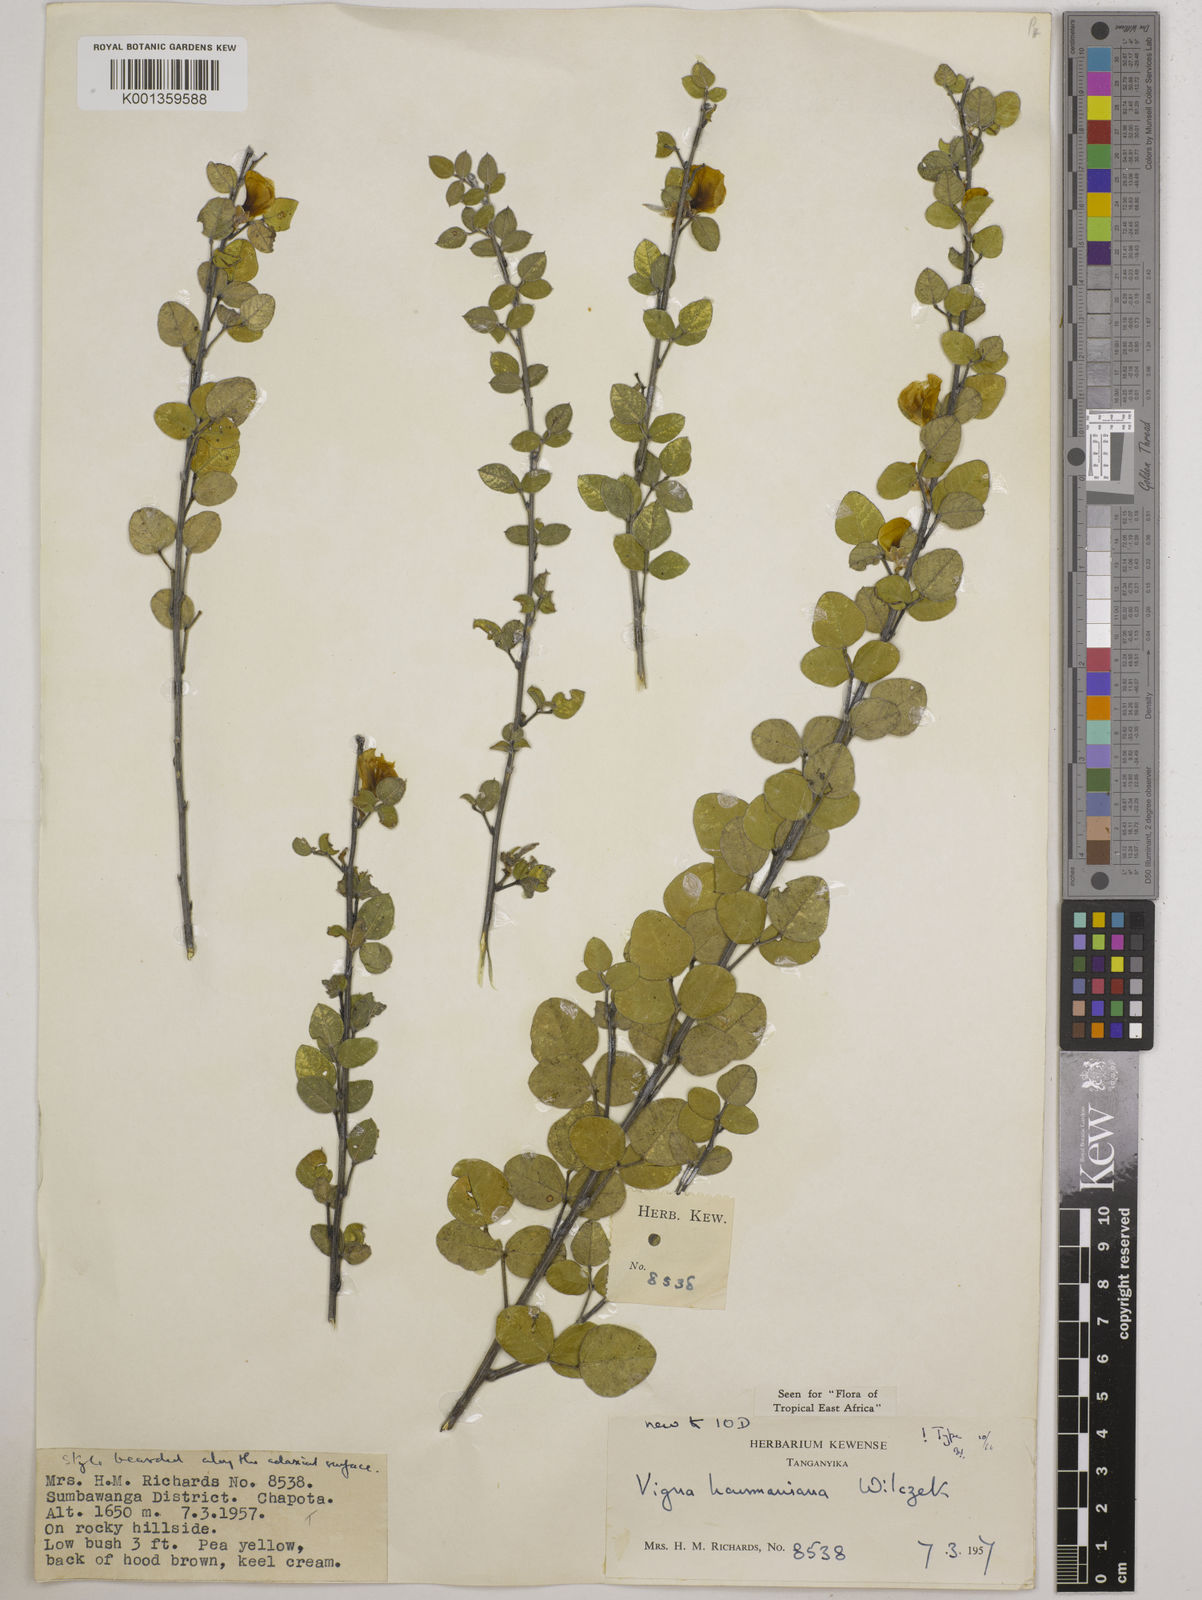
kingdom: Plantae
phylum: Tracheophyta
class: Magnoliopsida
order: Fabales
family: Fabaceae
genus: Vigna
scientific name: Vigna
